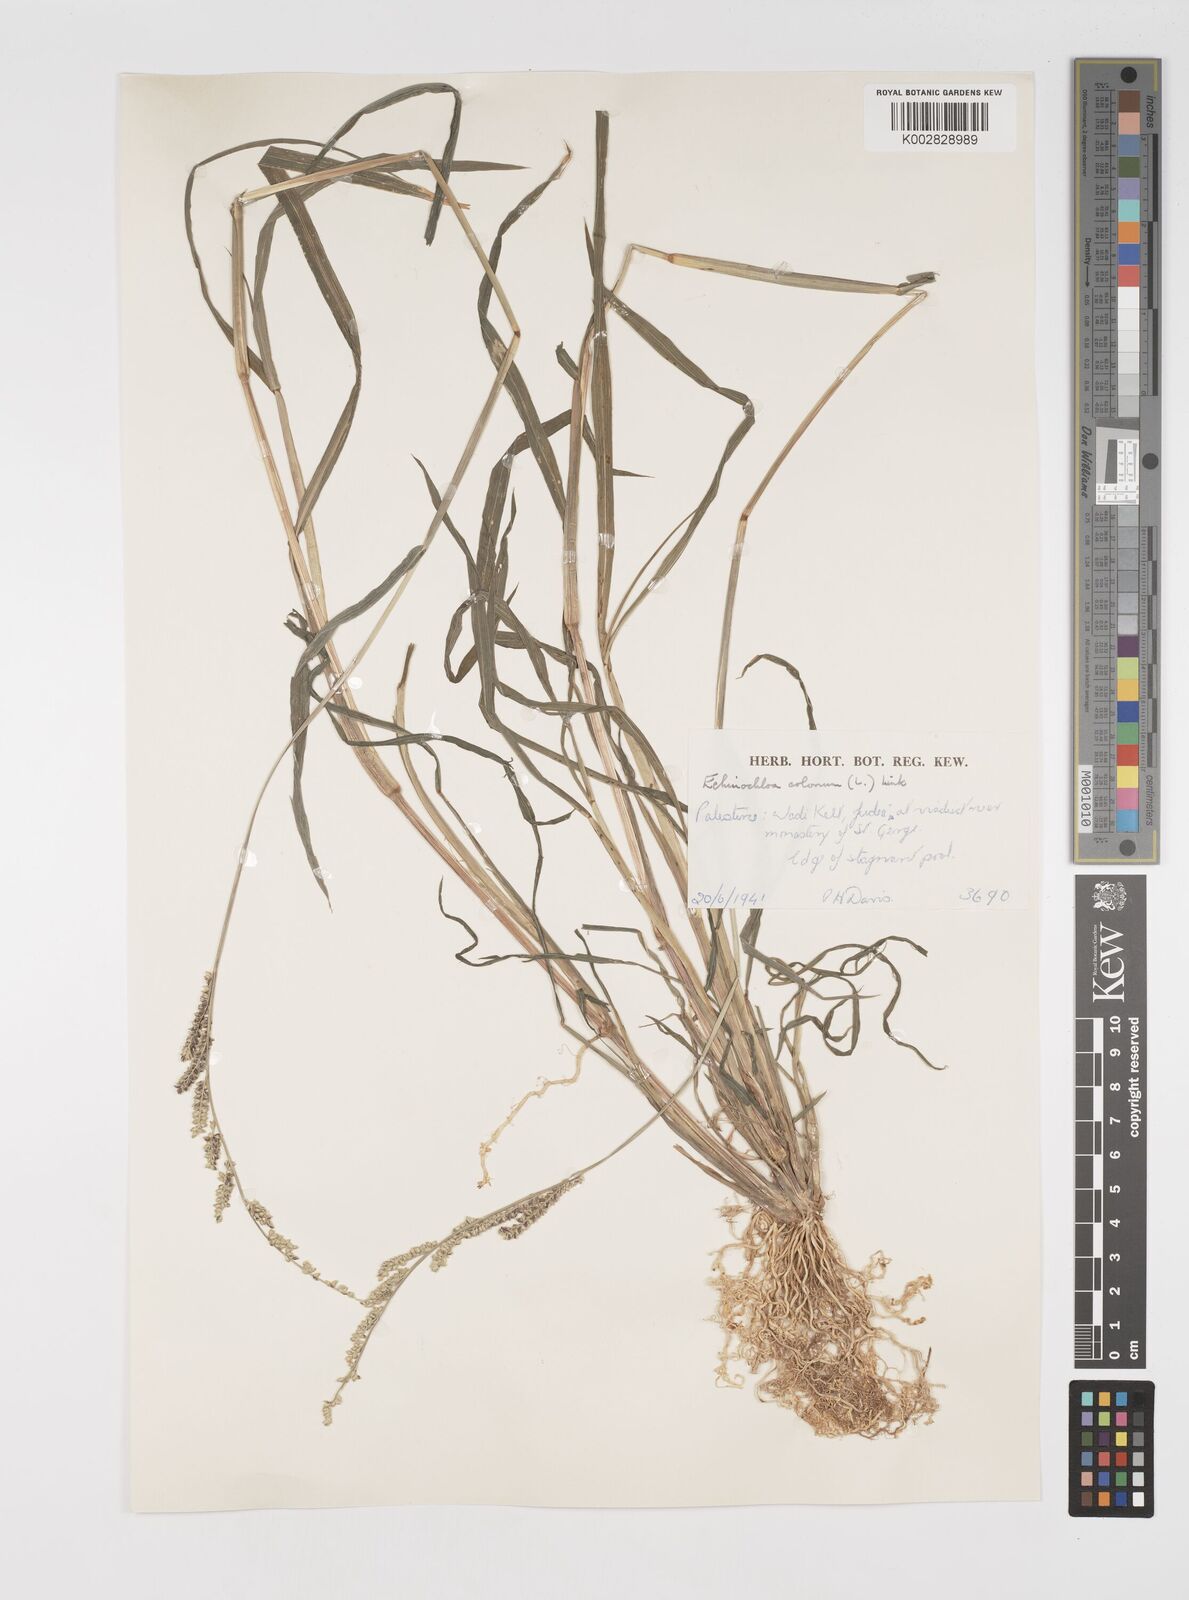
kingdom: Plantae
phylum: Tracheophyta
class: Liliopsida
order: Poales
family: Poaceae
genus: Echinochloa
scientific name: Echinochloa colonum
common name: Jungle rice
